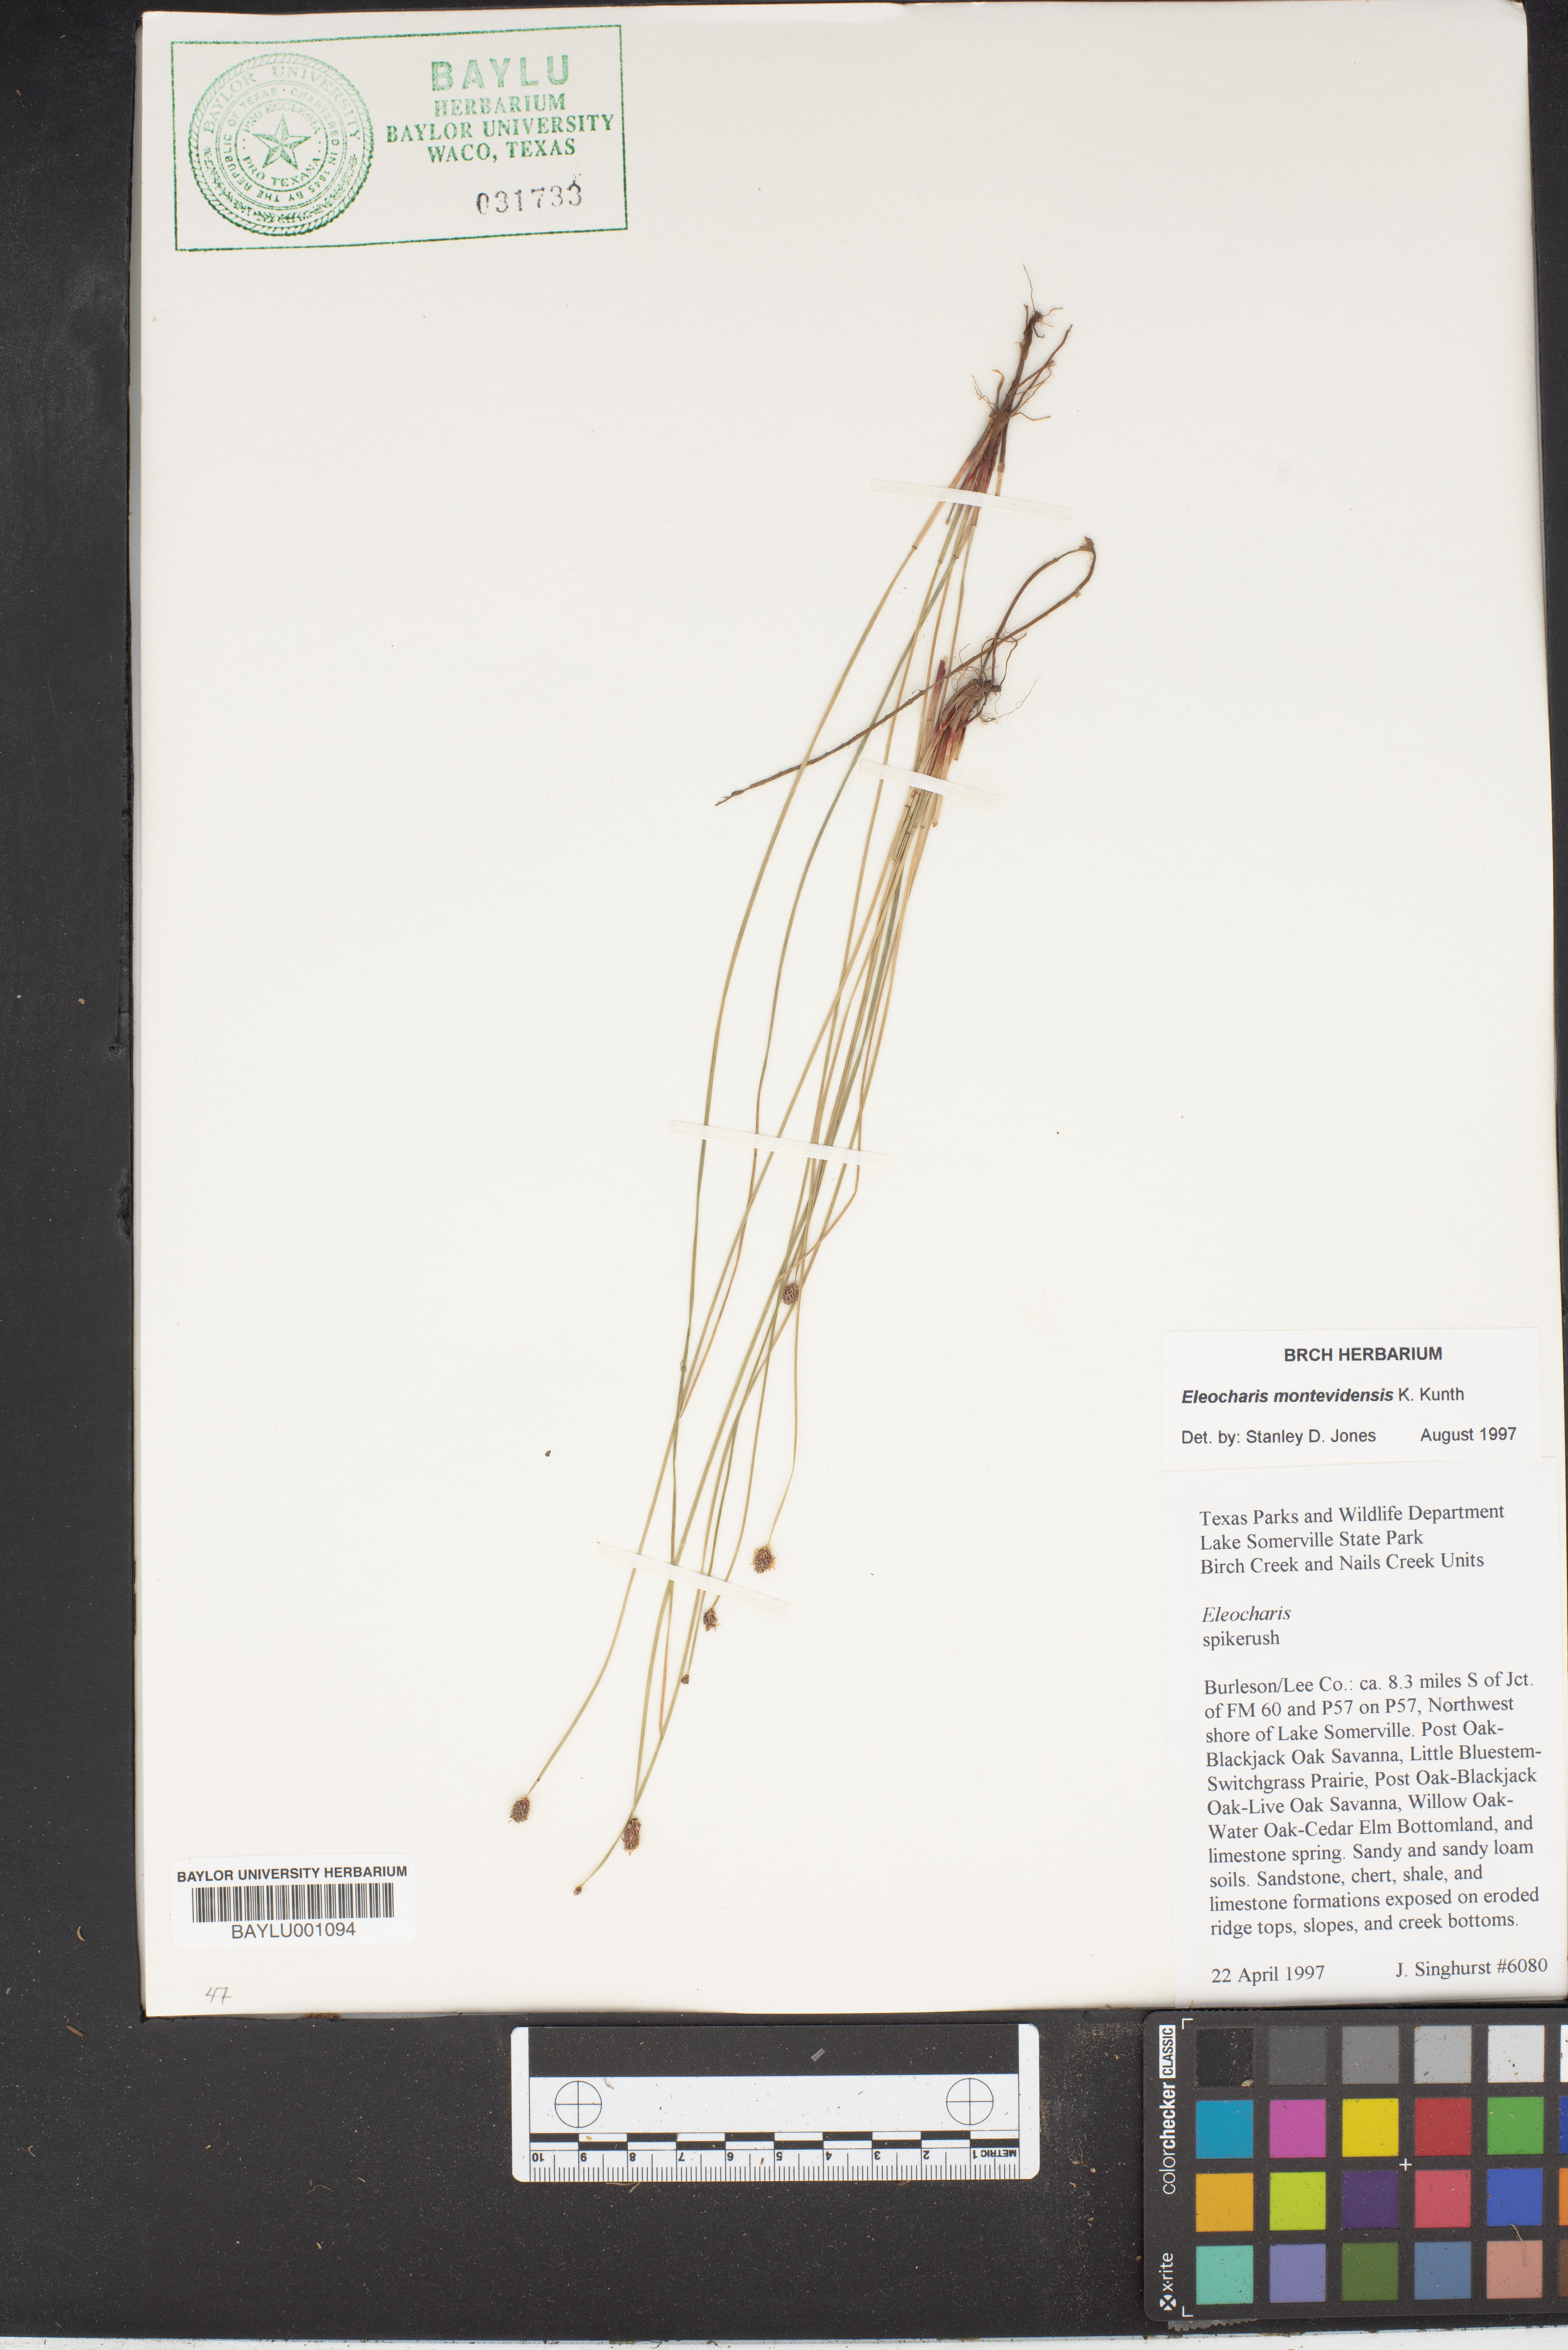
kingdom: Plantae
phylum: Tracheophyta
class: Liliopsida
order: Poales
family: Cyperaceae
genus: Eleocharis
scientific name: Eleocharis montevidensis
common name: Sand spike-rush
